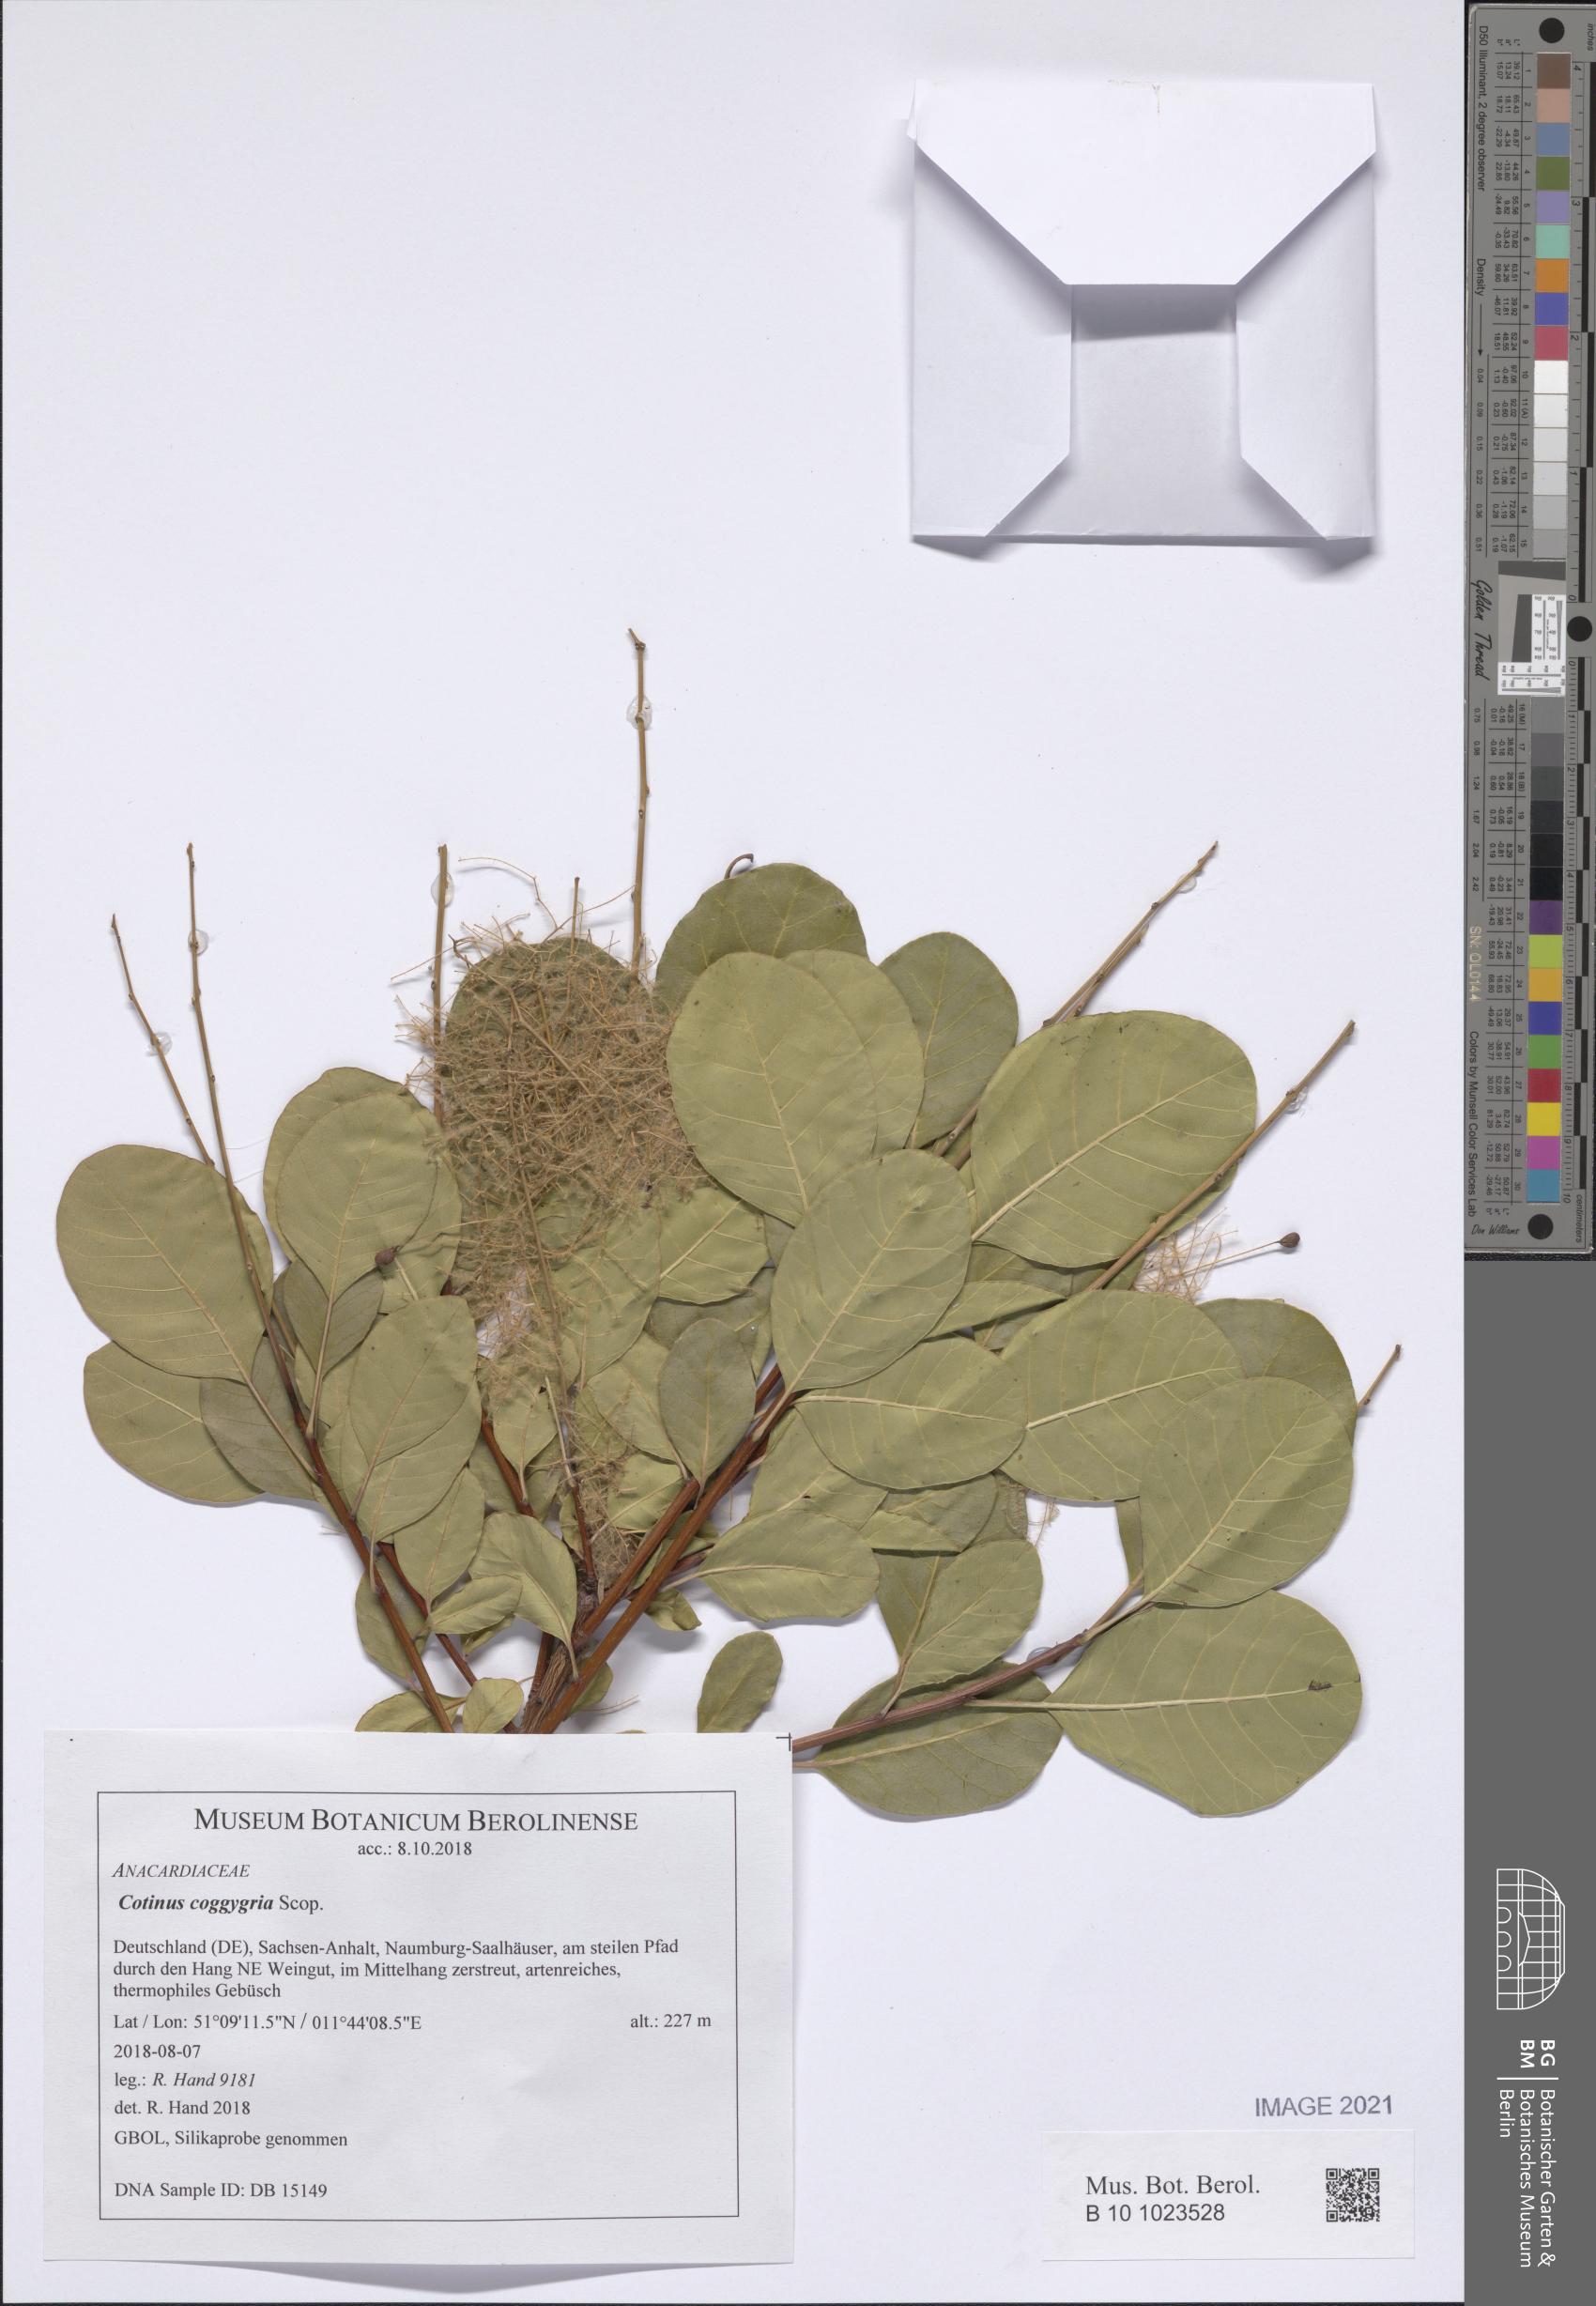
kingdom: Plantae
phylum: Tracheophyta
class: Magnoliopsida
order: Sapindales
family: Anacardiaceae
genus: Cotinus
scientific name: Cotinus coggygria
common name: Smoke-tree
